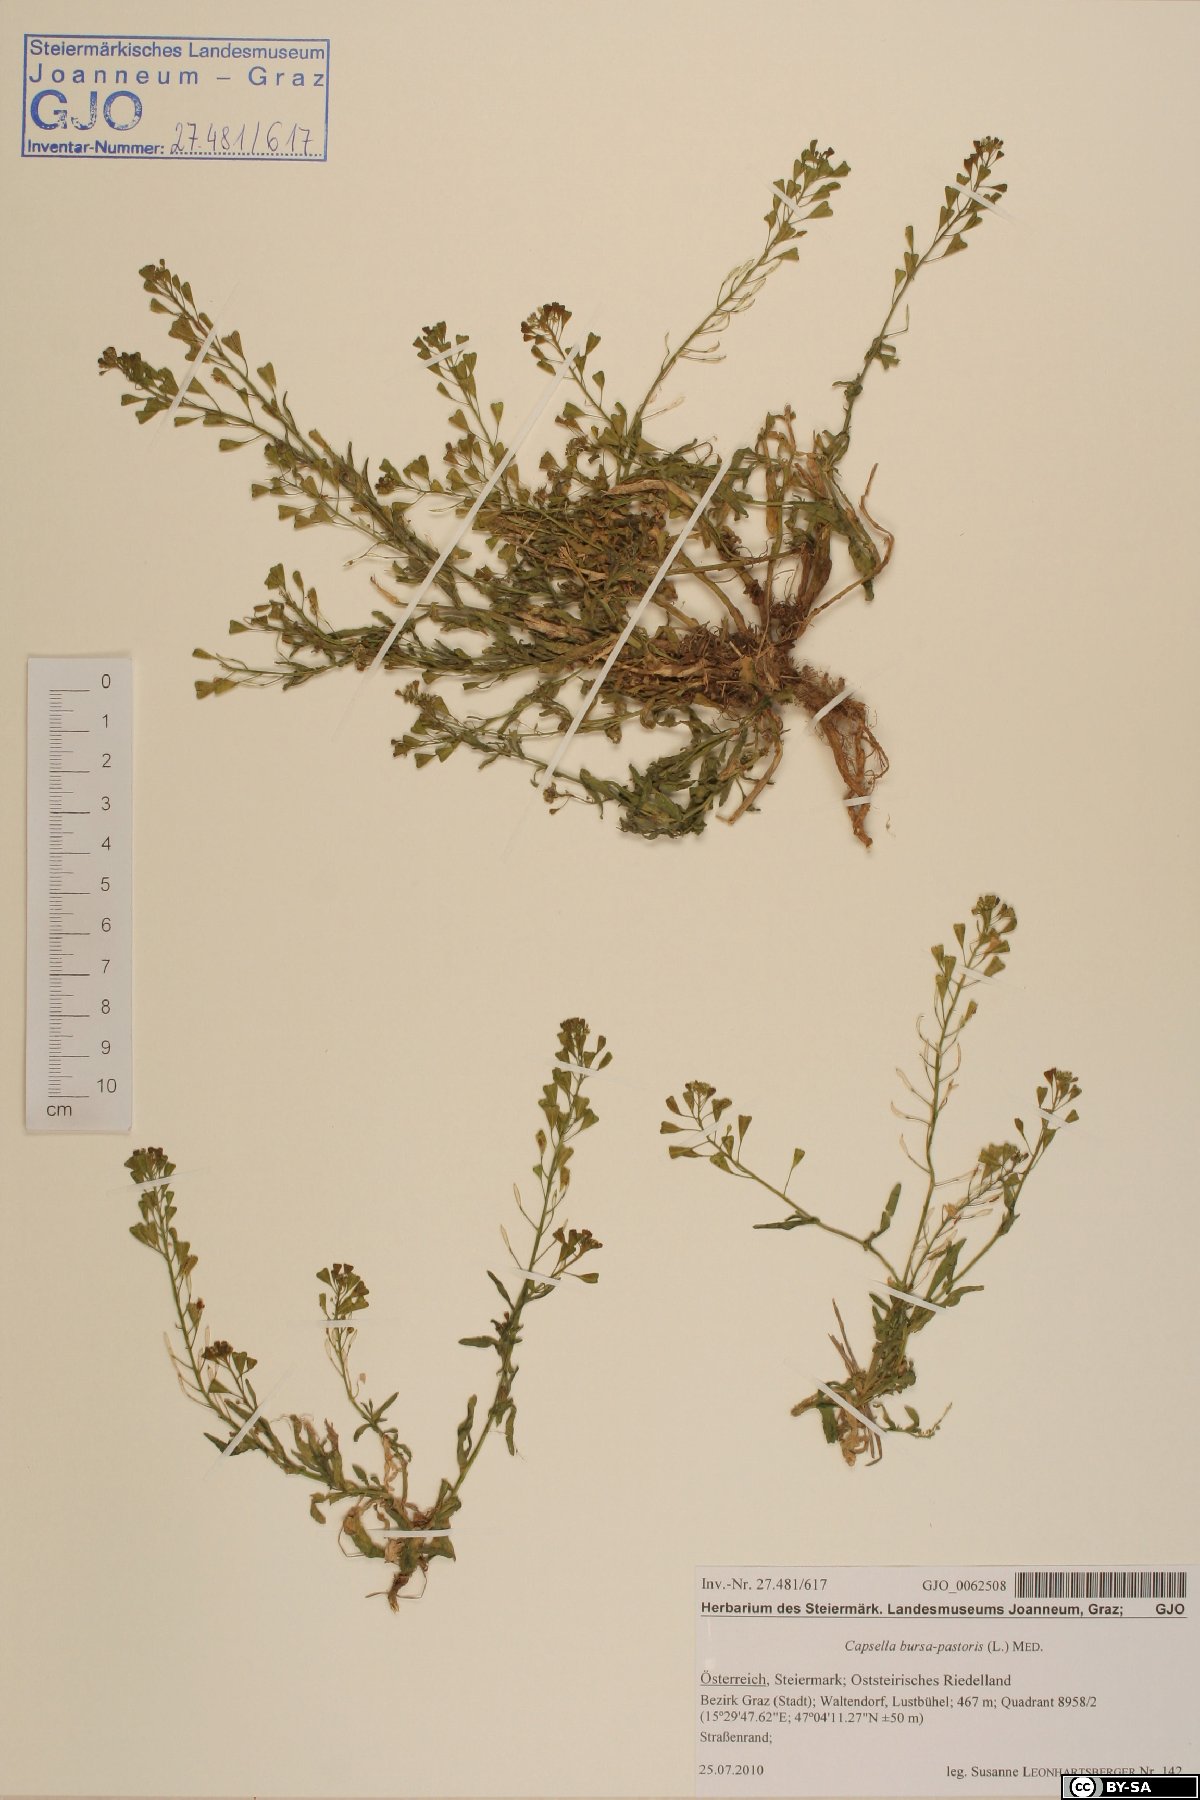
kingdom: Plantae
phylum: Tracheophyta
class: Magnoliopsida
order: Brassicales
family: Brassicaceae
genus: Capsella
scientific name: Capsella bursa-pastoris
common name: Shepherd's purse
